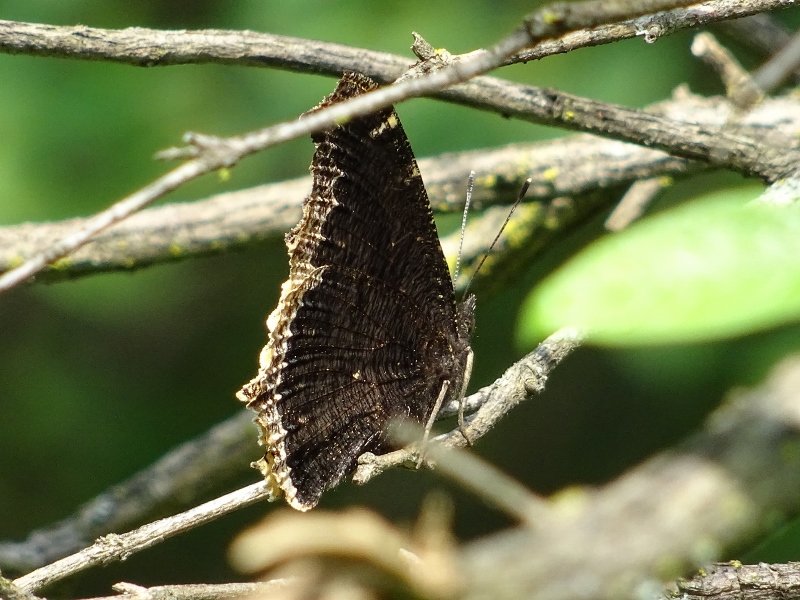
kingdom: Animalia
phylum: Arthropoda
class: Insecta
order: Lepidoptera
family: Nymphalidae
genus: Nymphalis
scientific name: Nymphalis antiopa
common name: Mourning Cloak
